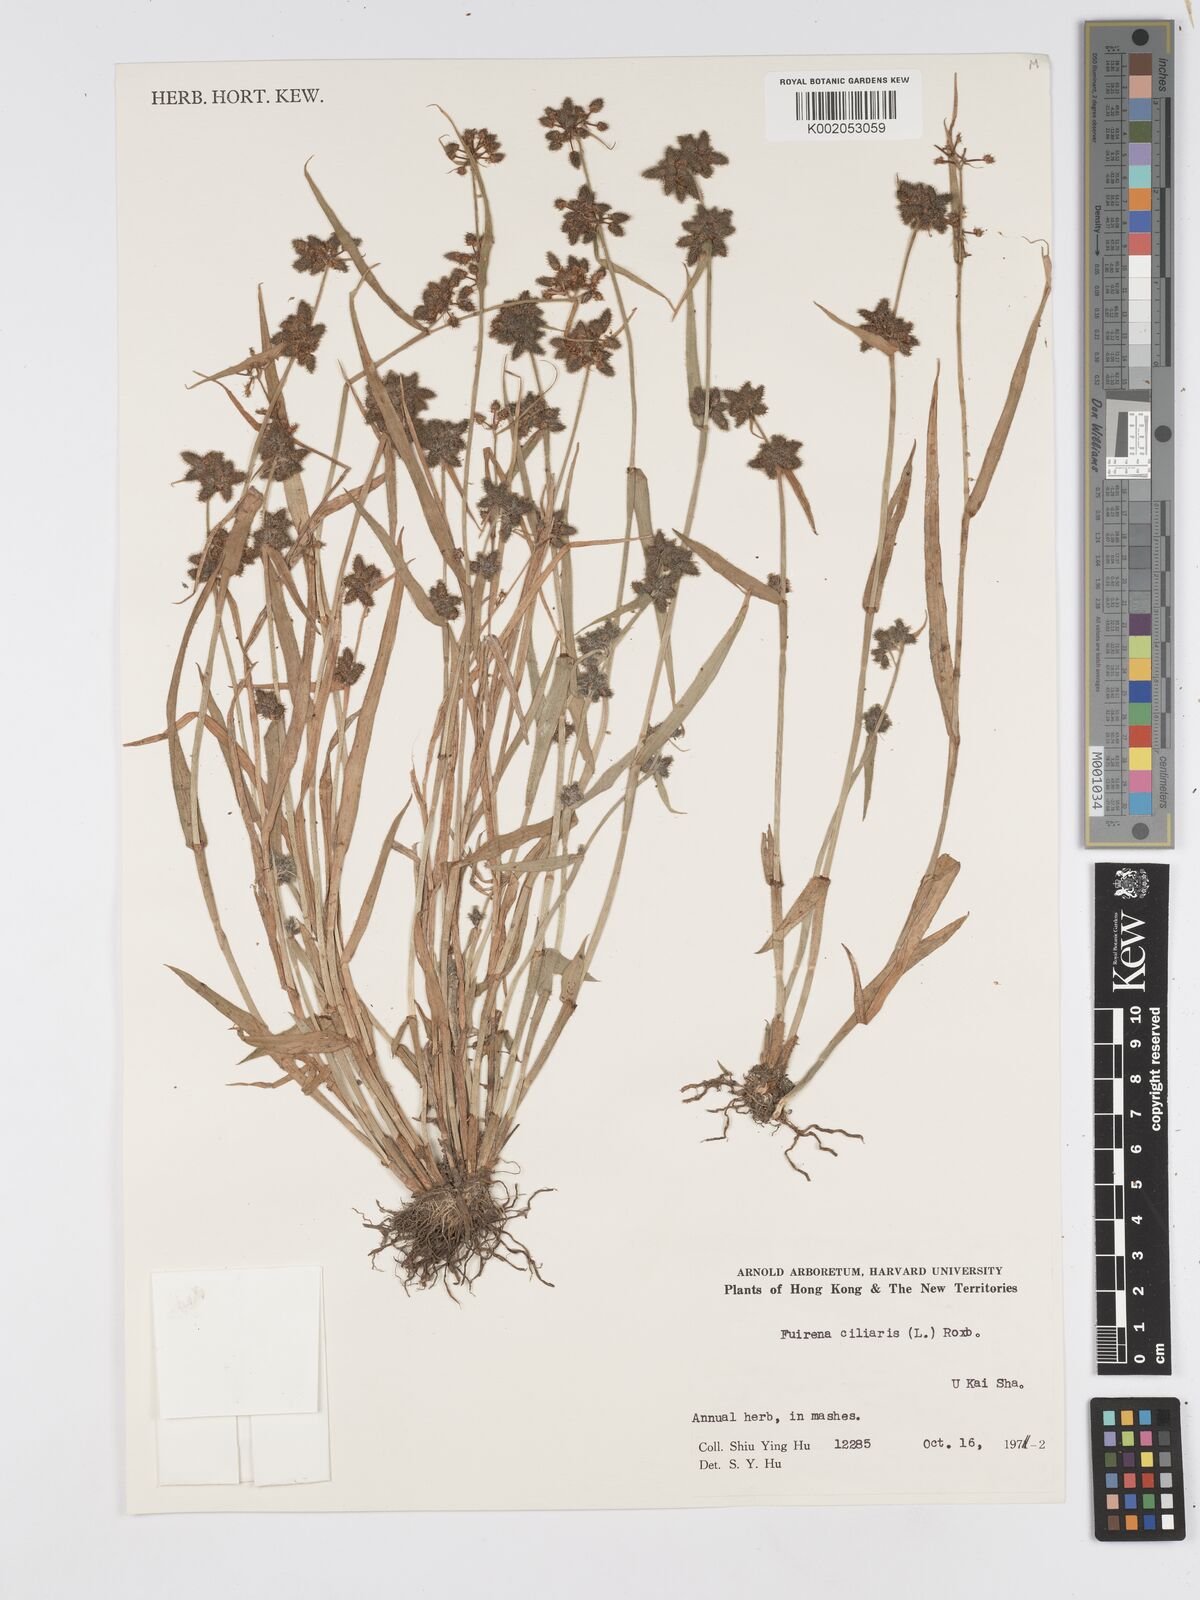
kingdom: Plantae
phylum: Tracheophyta
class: Liliopsida
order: Poales
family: Cyperaceae
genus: Fuirena
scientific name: Fuirena ciliaris
